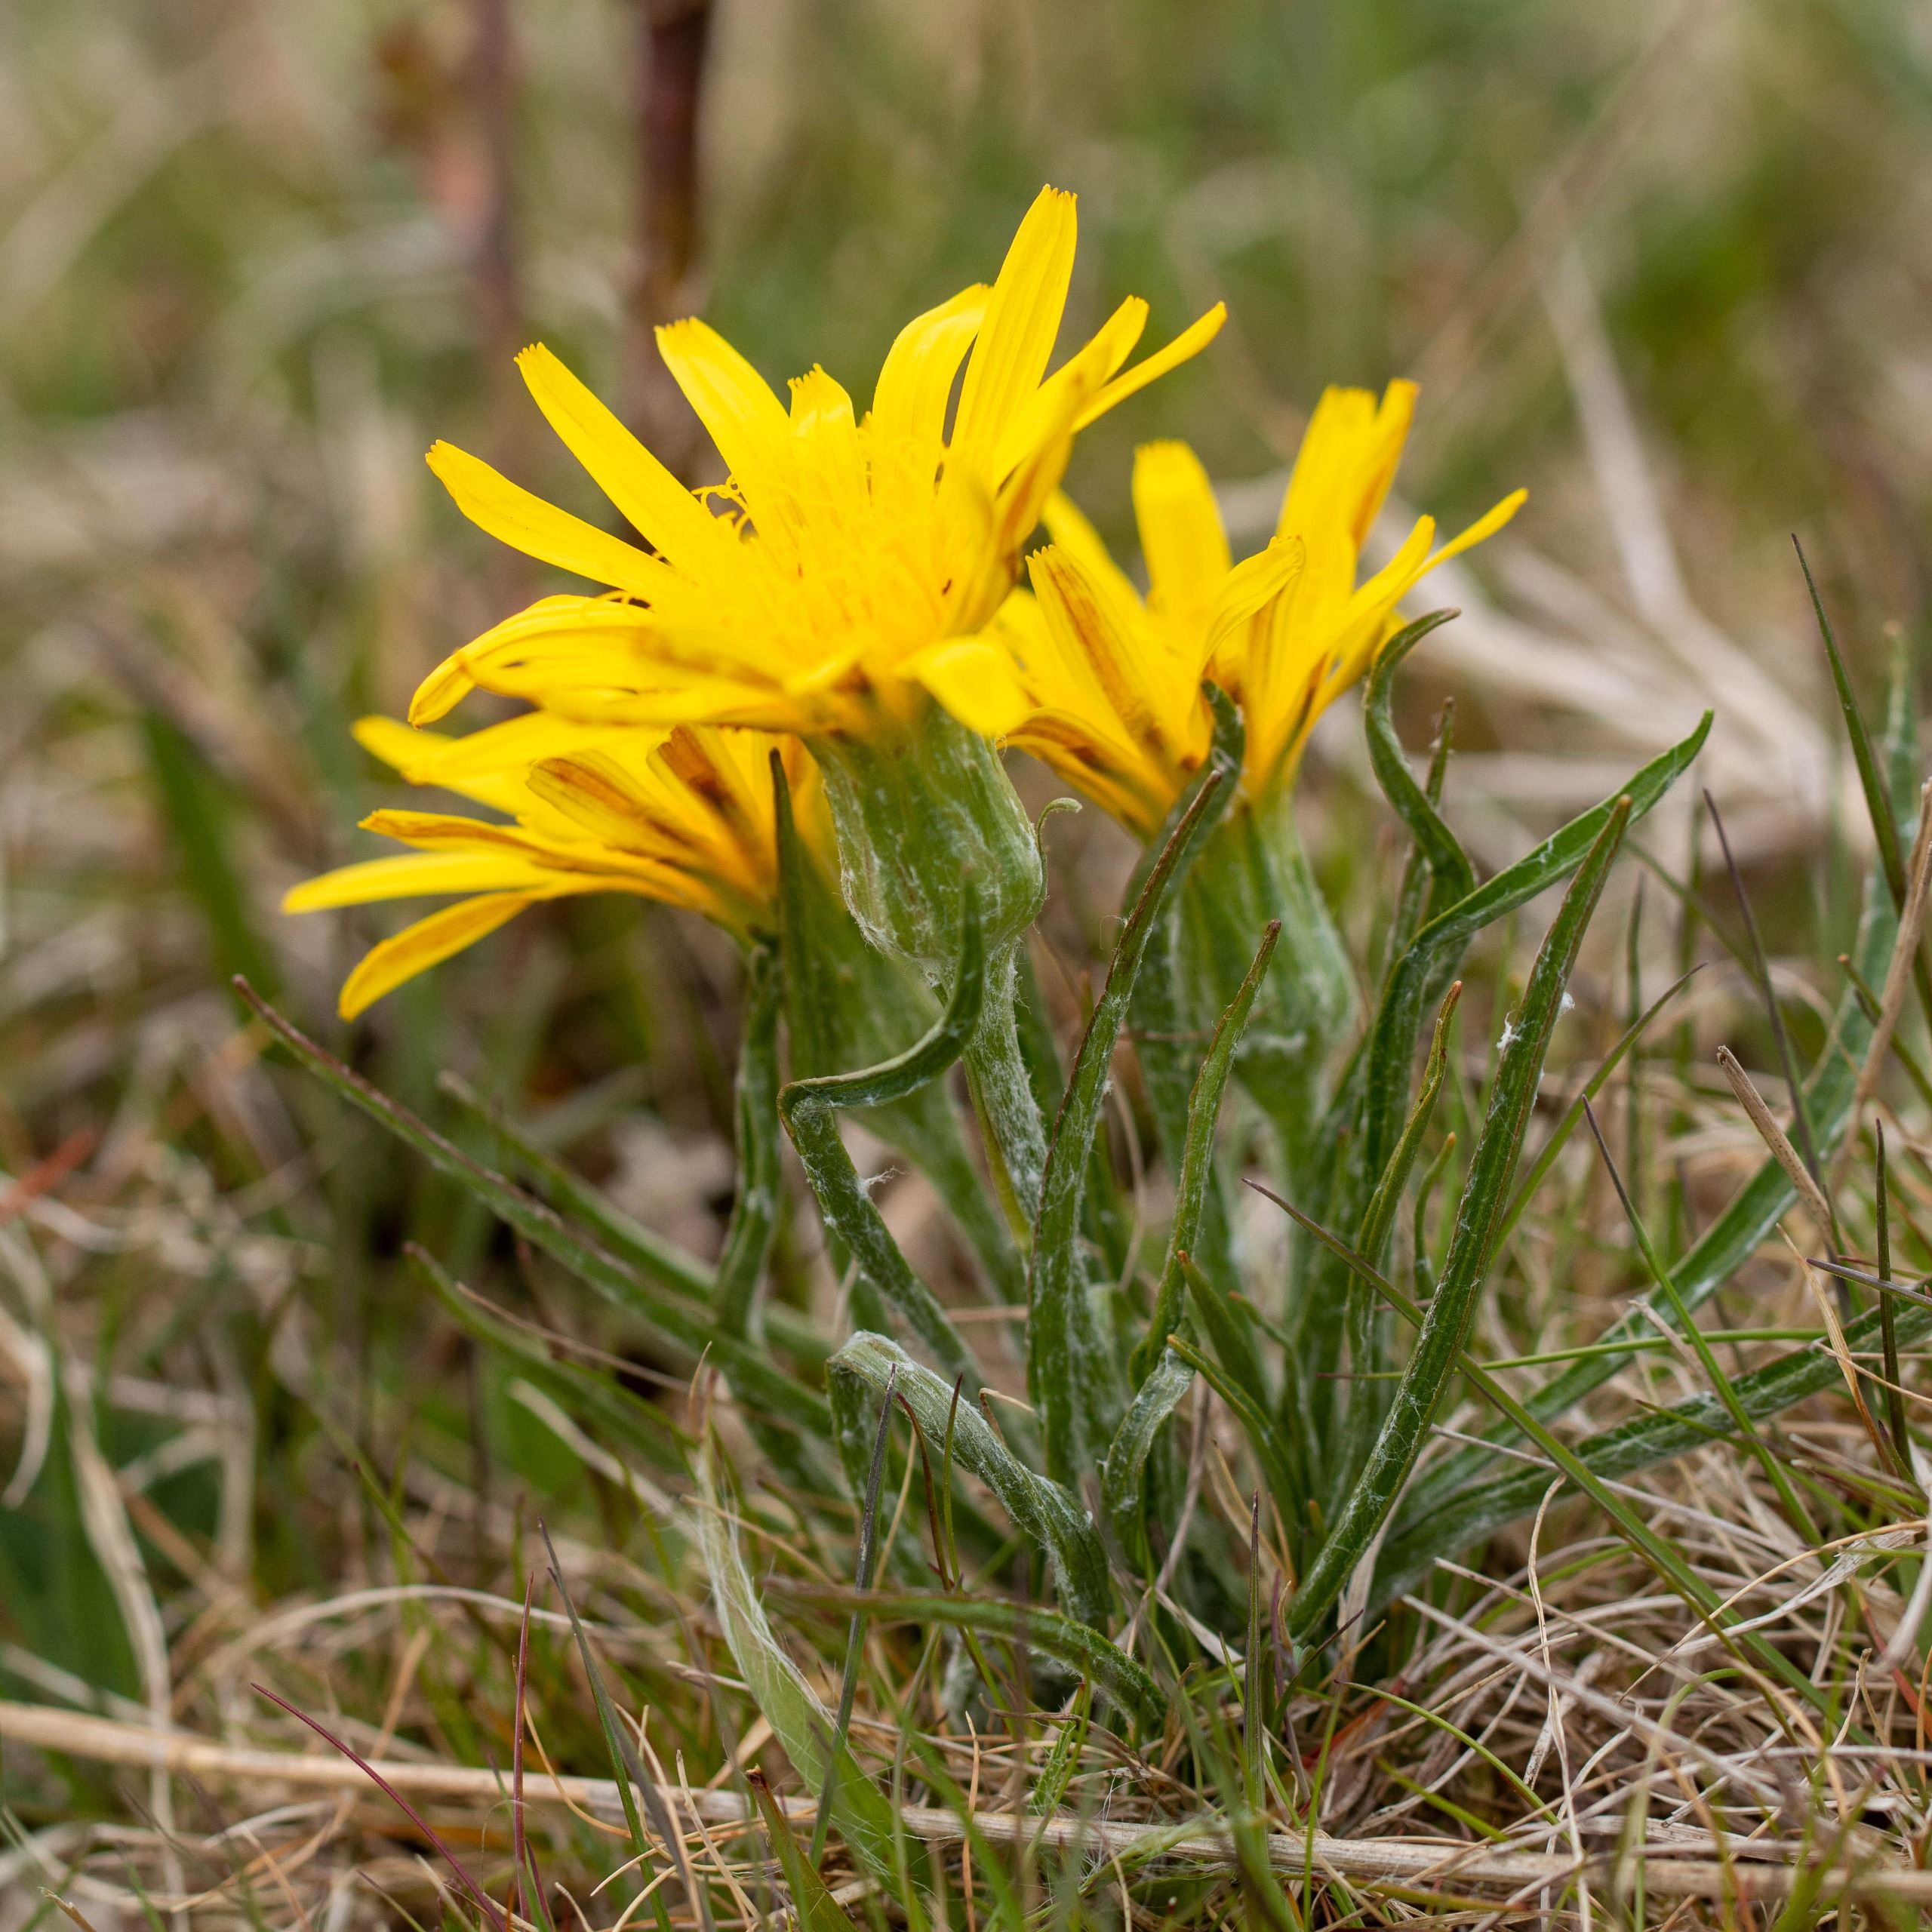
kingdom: Plantae
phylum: Tracheophyta
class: Magnoliopsida
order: Asterales
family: Asteraceae
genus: Scorzonera
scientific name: Scorzonera humilis
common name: Lav skorsoner
